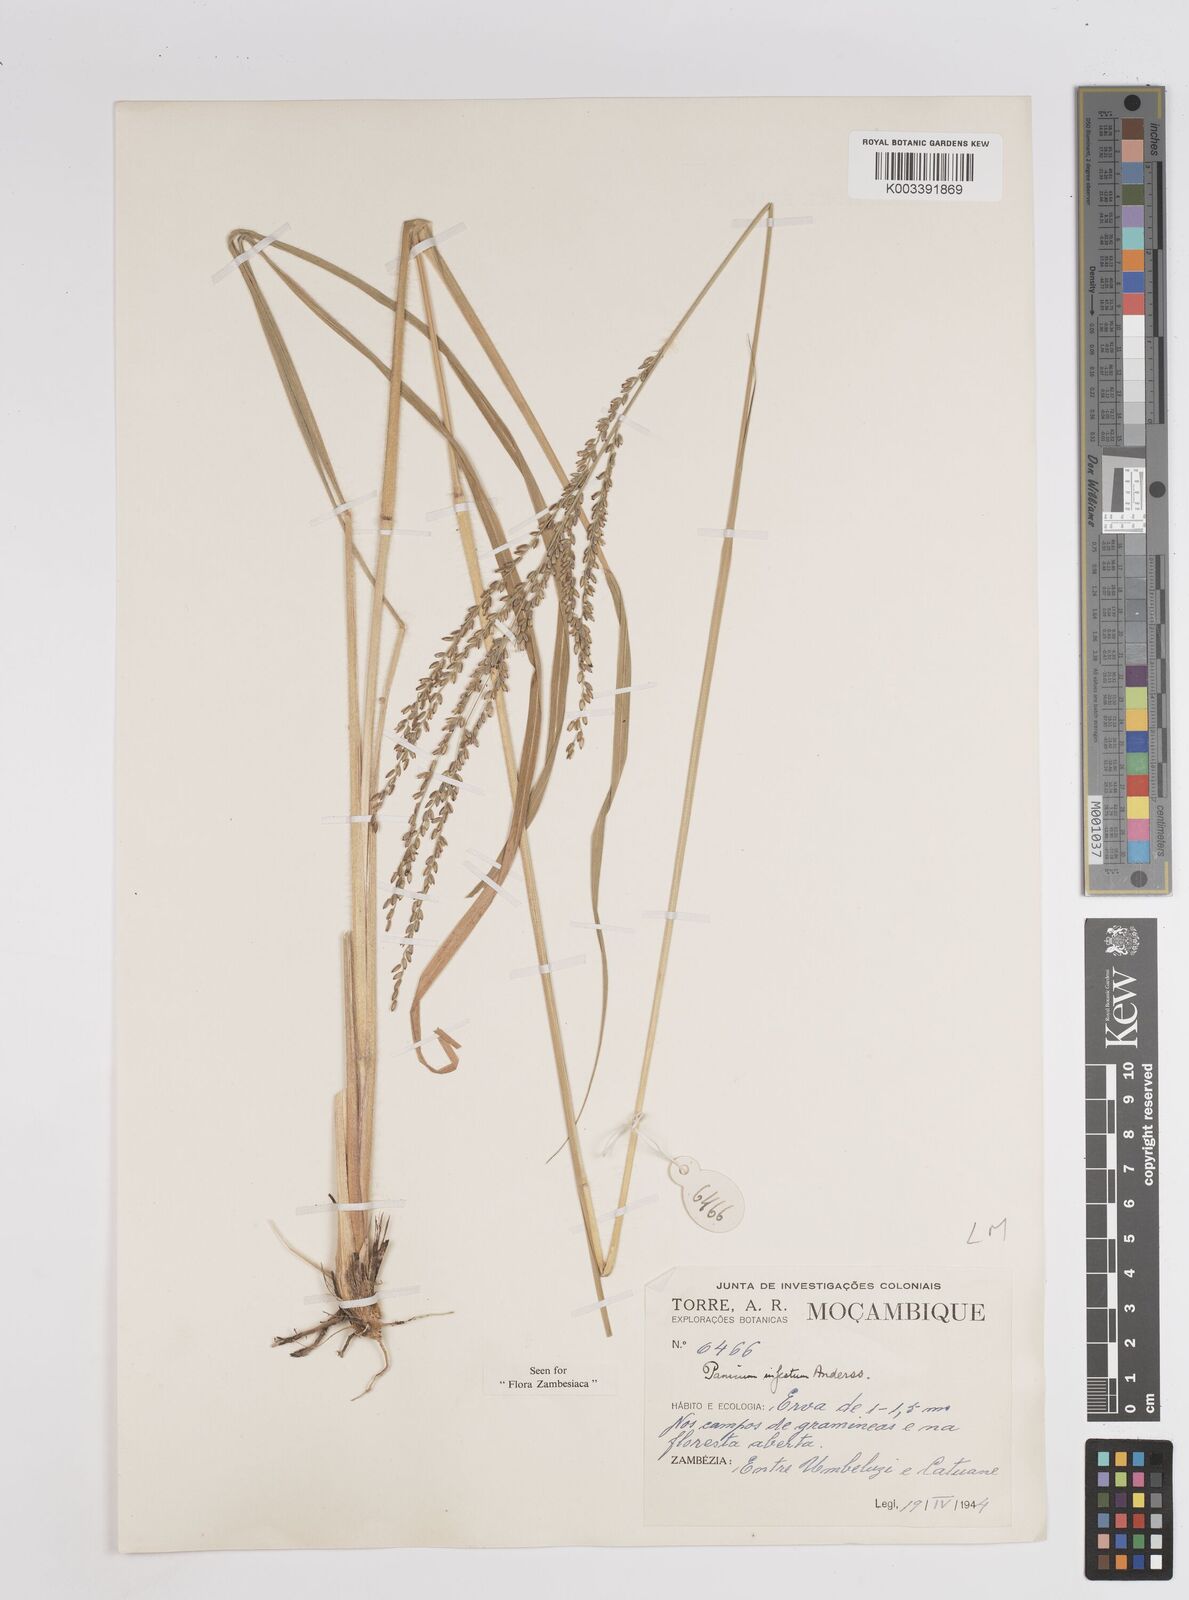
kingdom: Plantae
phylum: Tracheophyta
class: Liliopsida
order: Poales
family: Poaceae
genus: Megathyrsus
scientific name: Megathyrsus infestus
